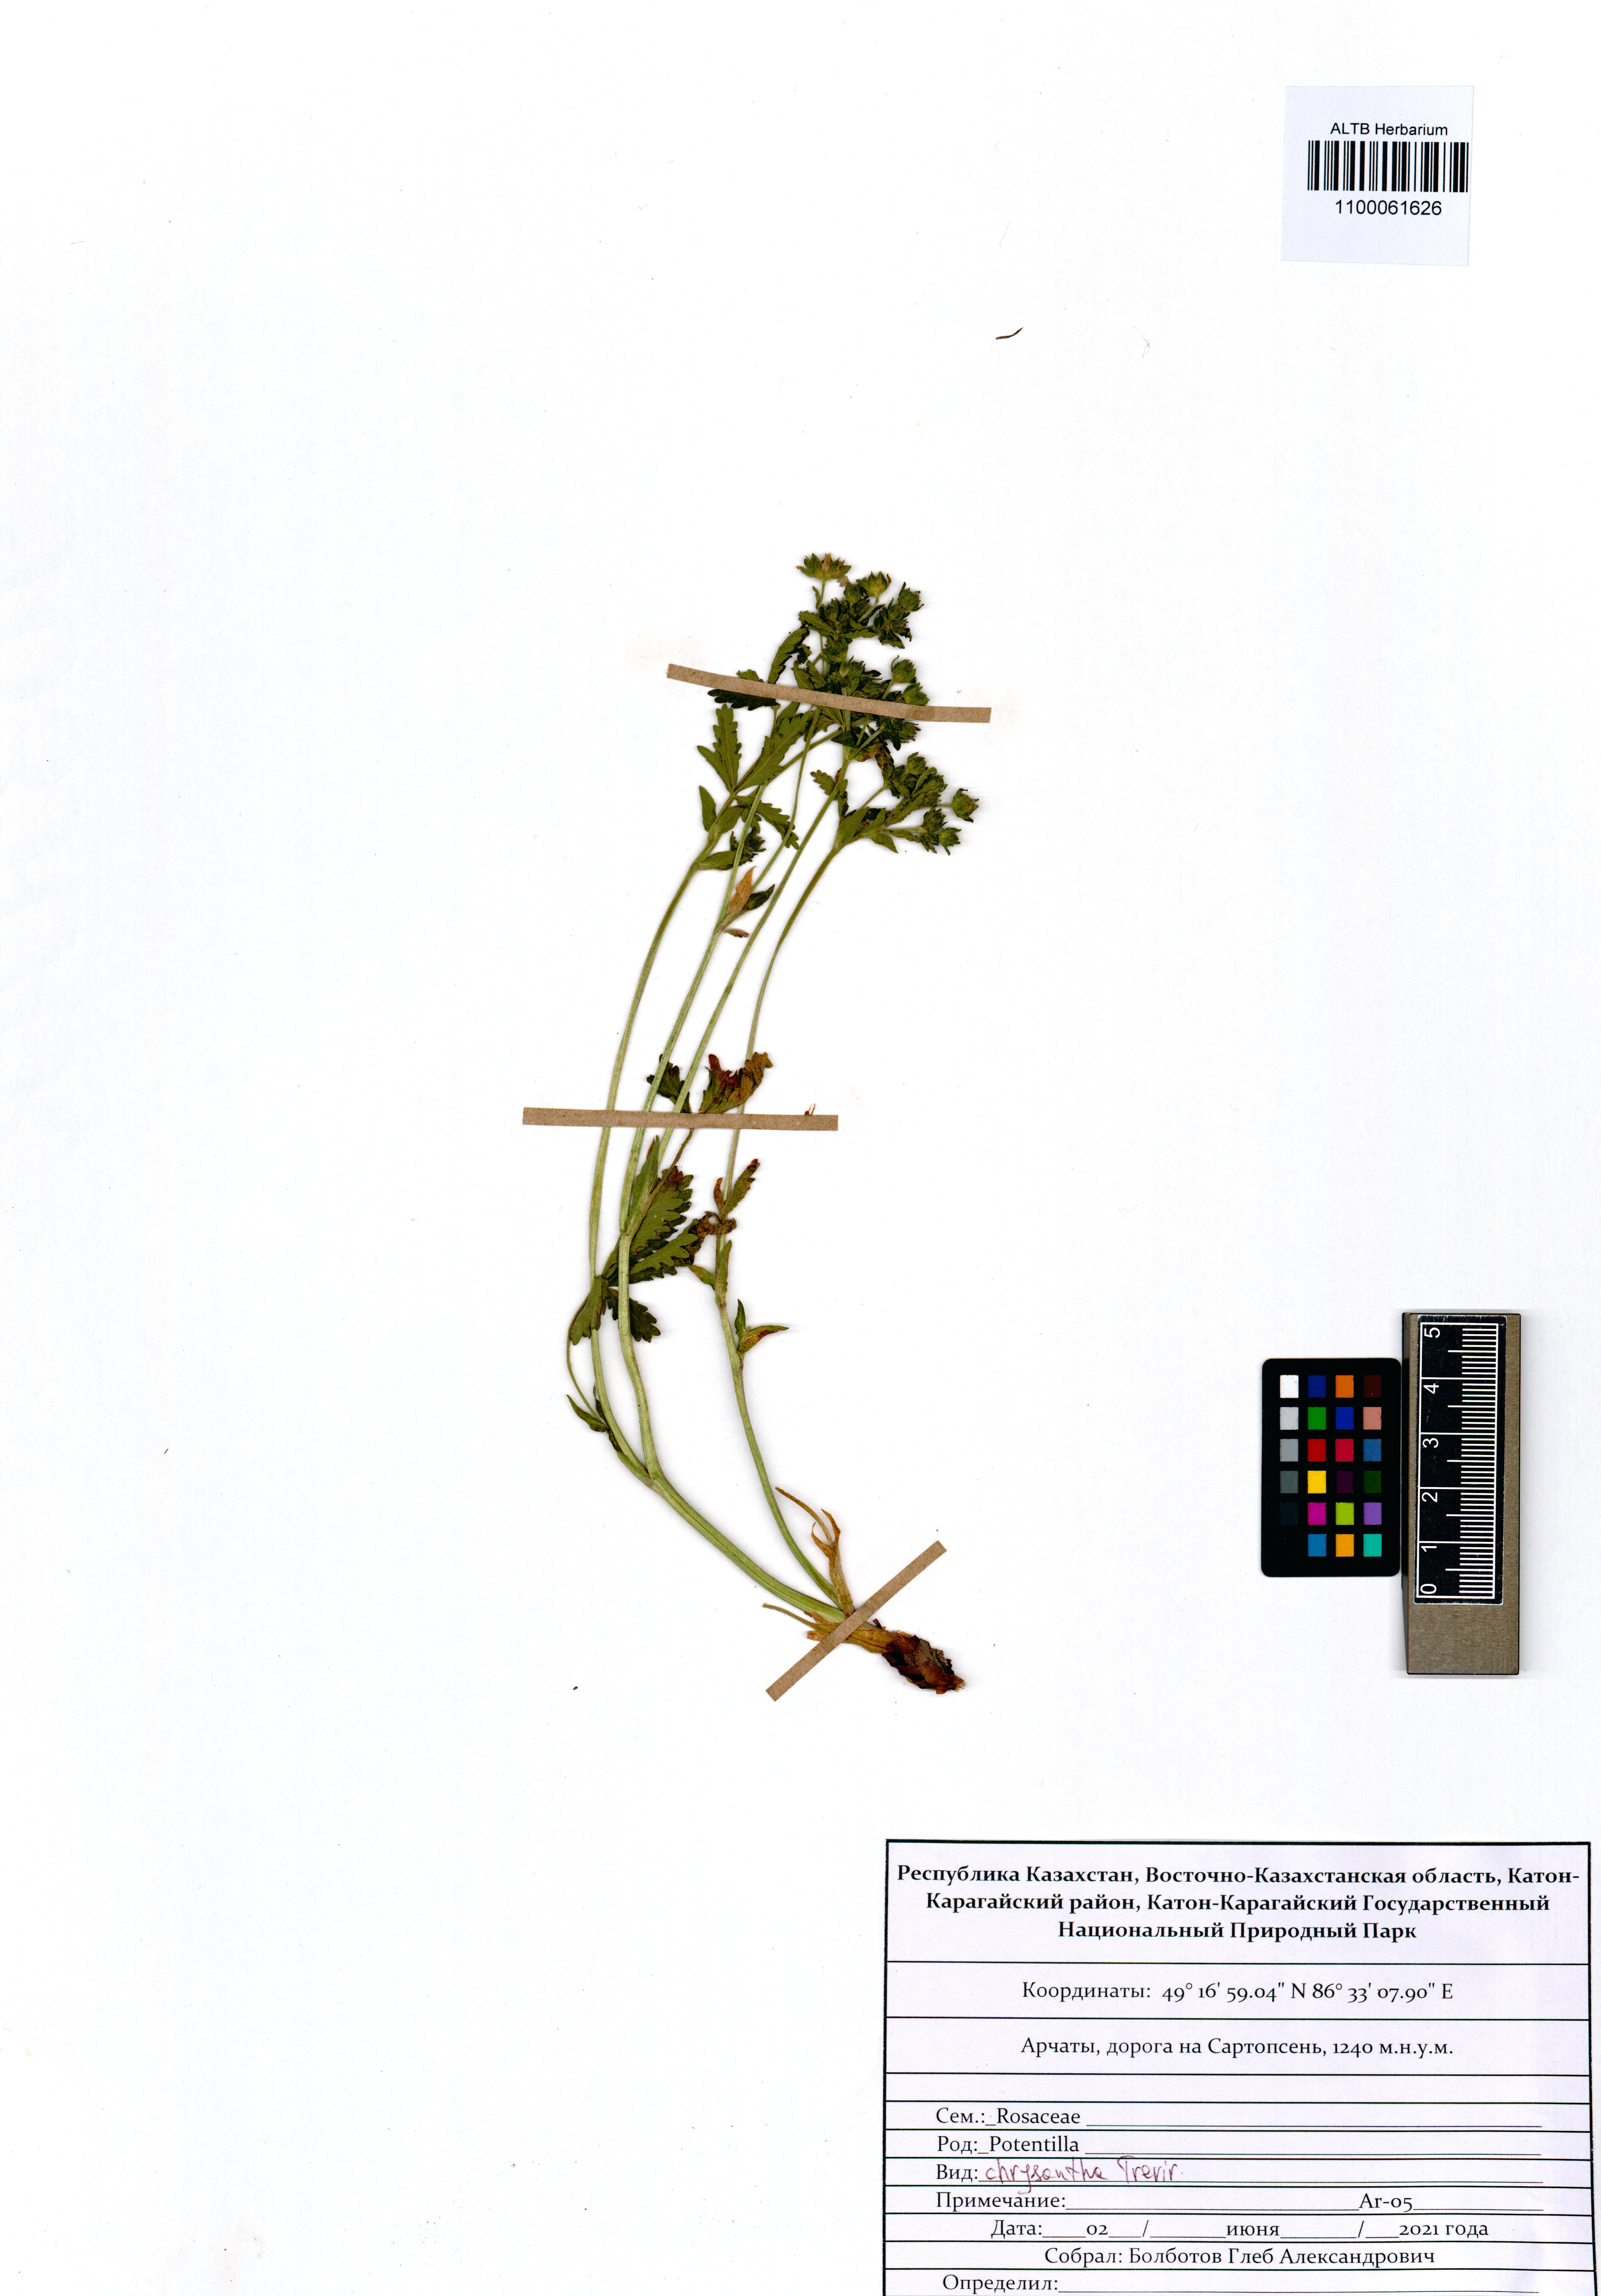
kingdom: Plantae
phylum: Tracheophyta
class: Magnoliopsida
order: Rosales
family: Rosaceae
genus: Potentilla
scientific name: Potentilla chrysantha
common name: Thuringian cinquefoil
